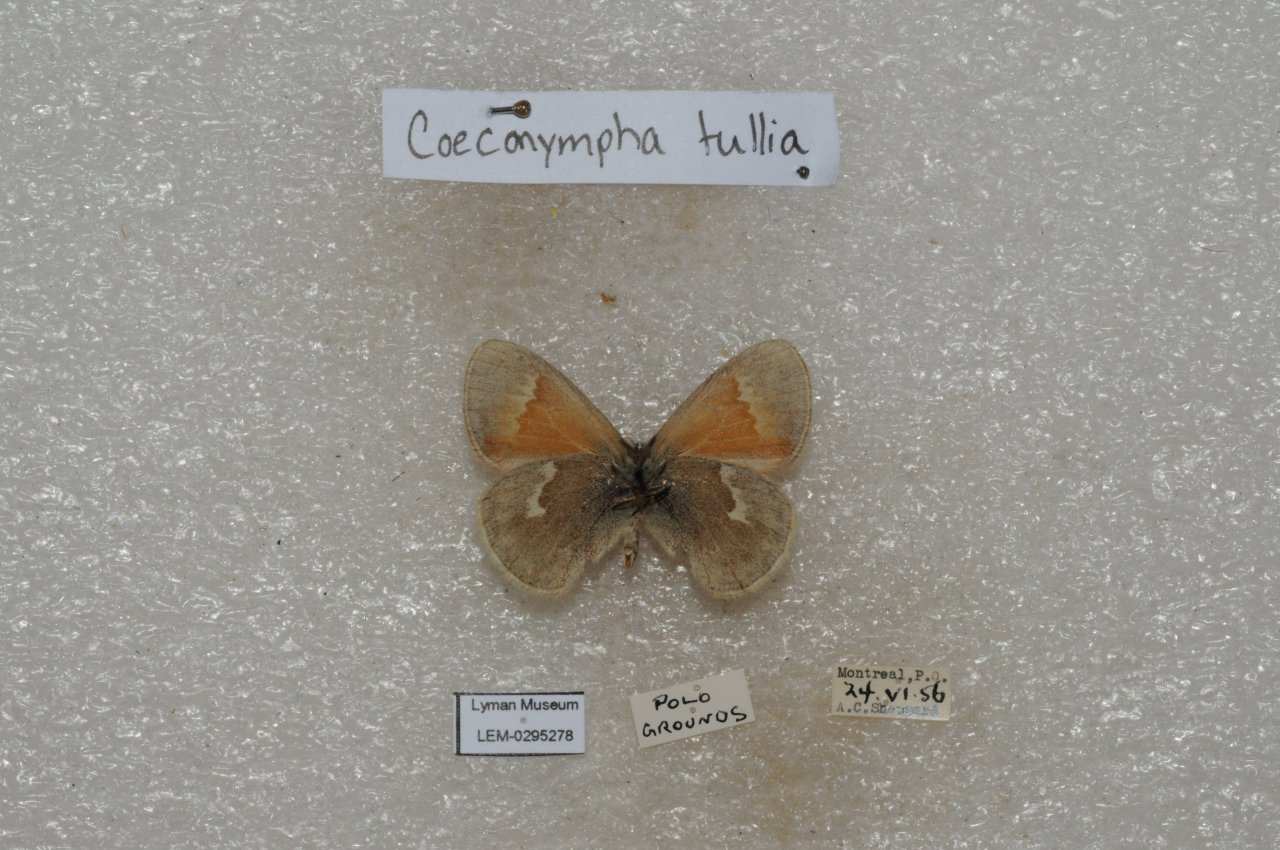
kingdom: Animalia
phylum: Arthropoda
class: Insecta
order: Lepidoptera
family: Nymphalidae
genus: Coenonympha
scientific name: Coenonympha tullia
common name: Large Heath
